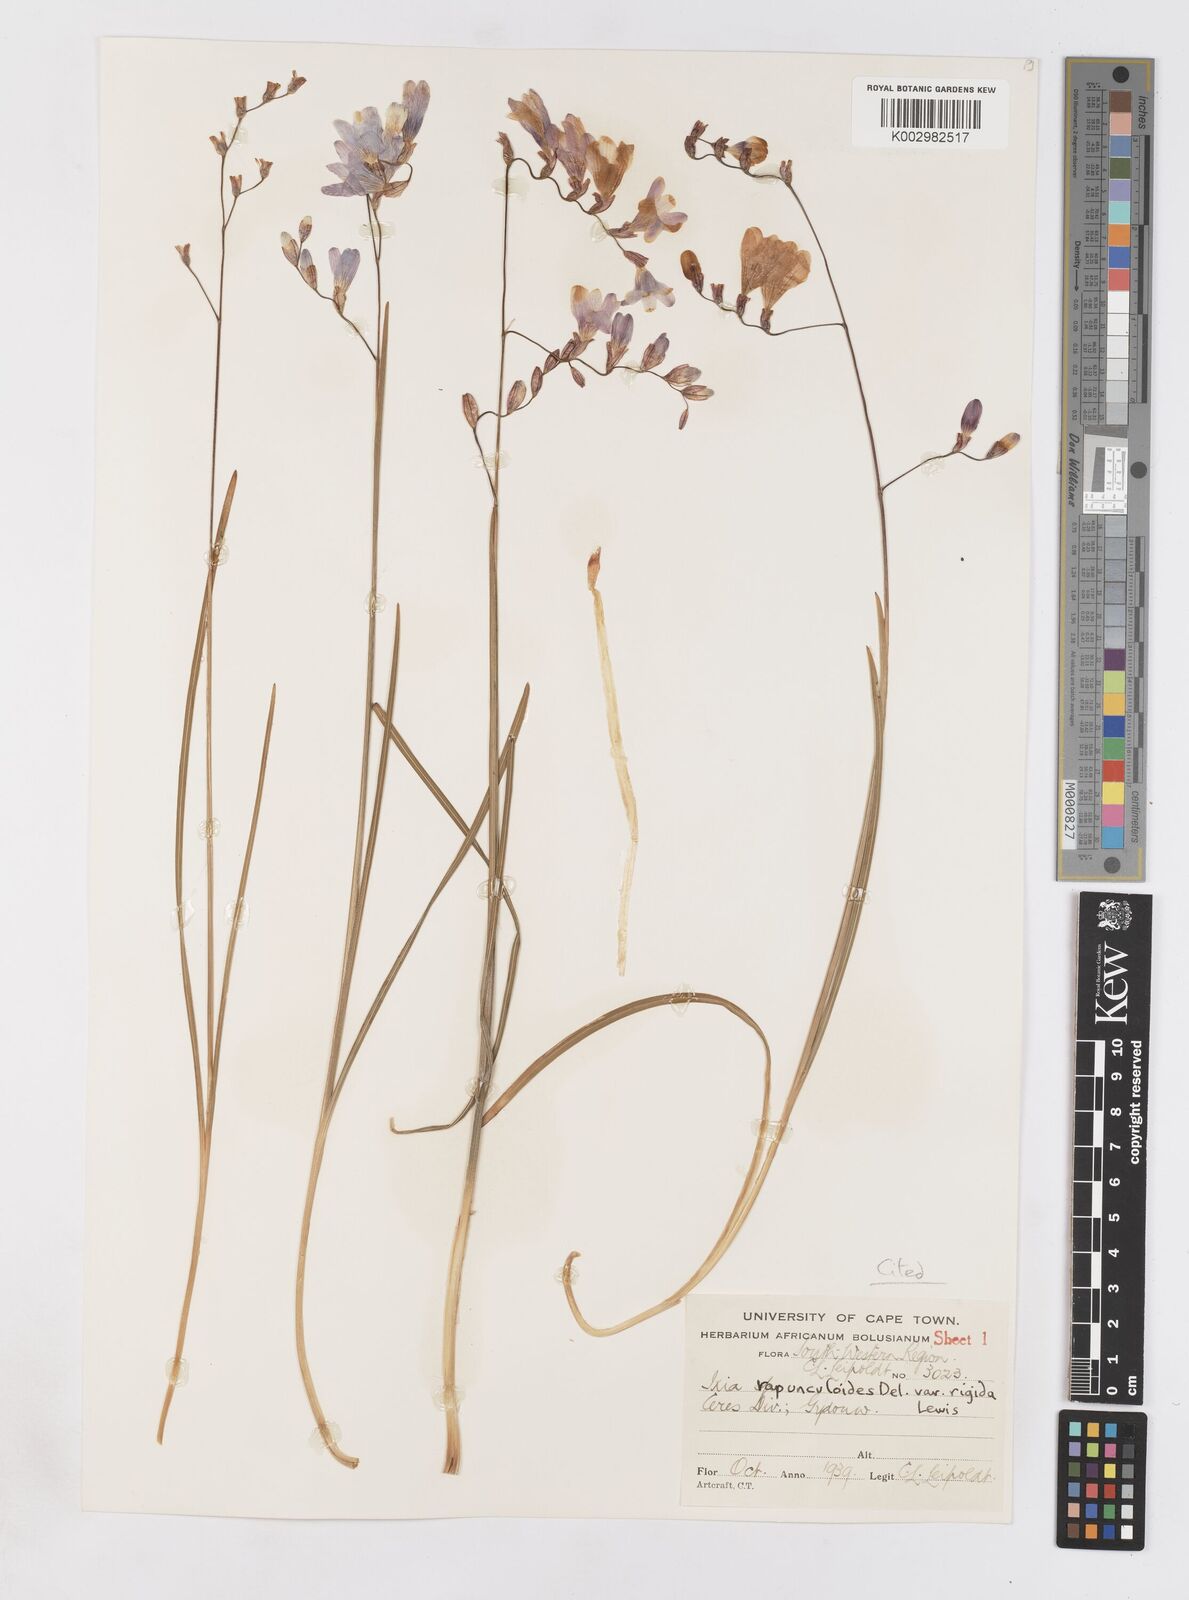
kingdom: Plantae
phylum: Tracheophyta
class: Liliopsida
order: Asparagales
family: Iridaceae
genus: Ixia
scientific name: Ixia rapunculoides
